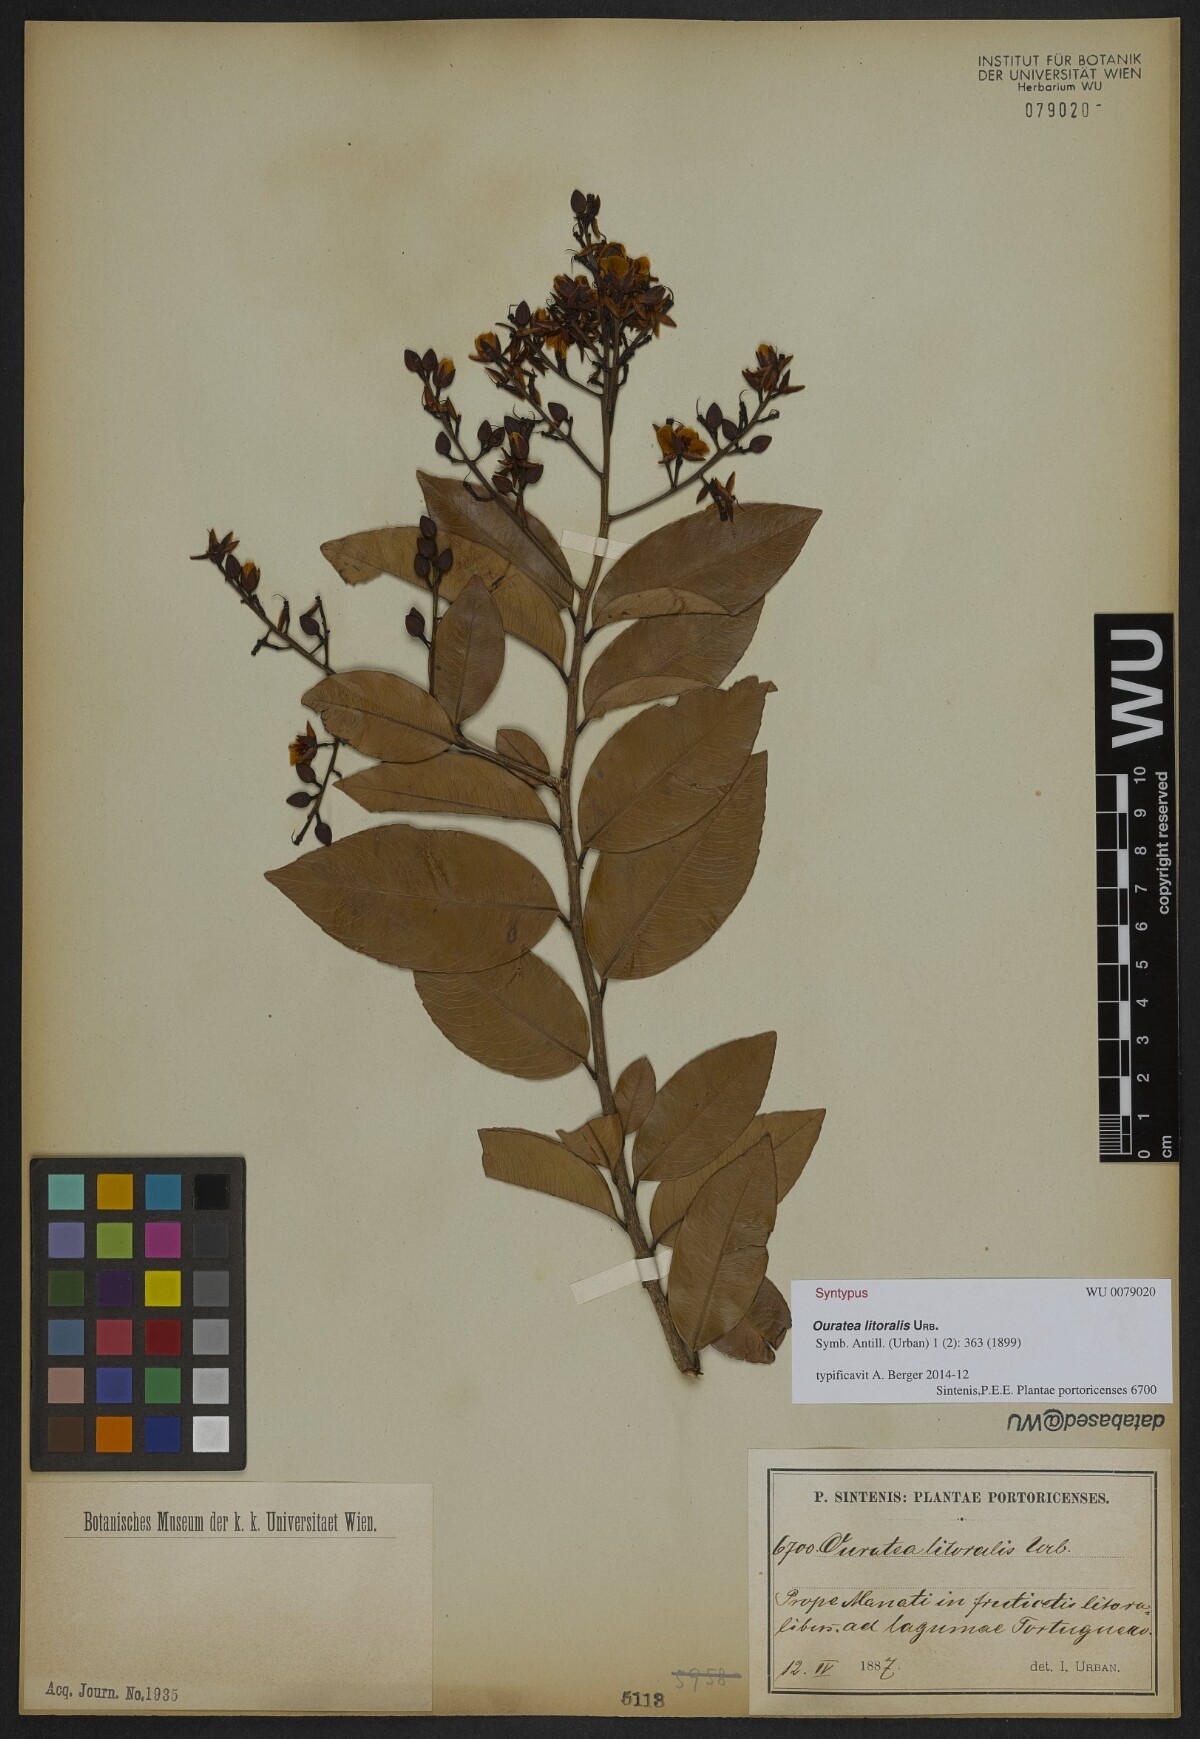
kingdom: Plantae
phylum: Tracheophyta
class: Magnoliopsida
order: Malpighiales
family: Ochnaceae
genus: Ouratea
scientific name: Ouratea litoralis
